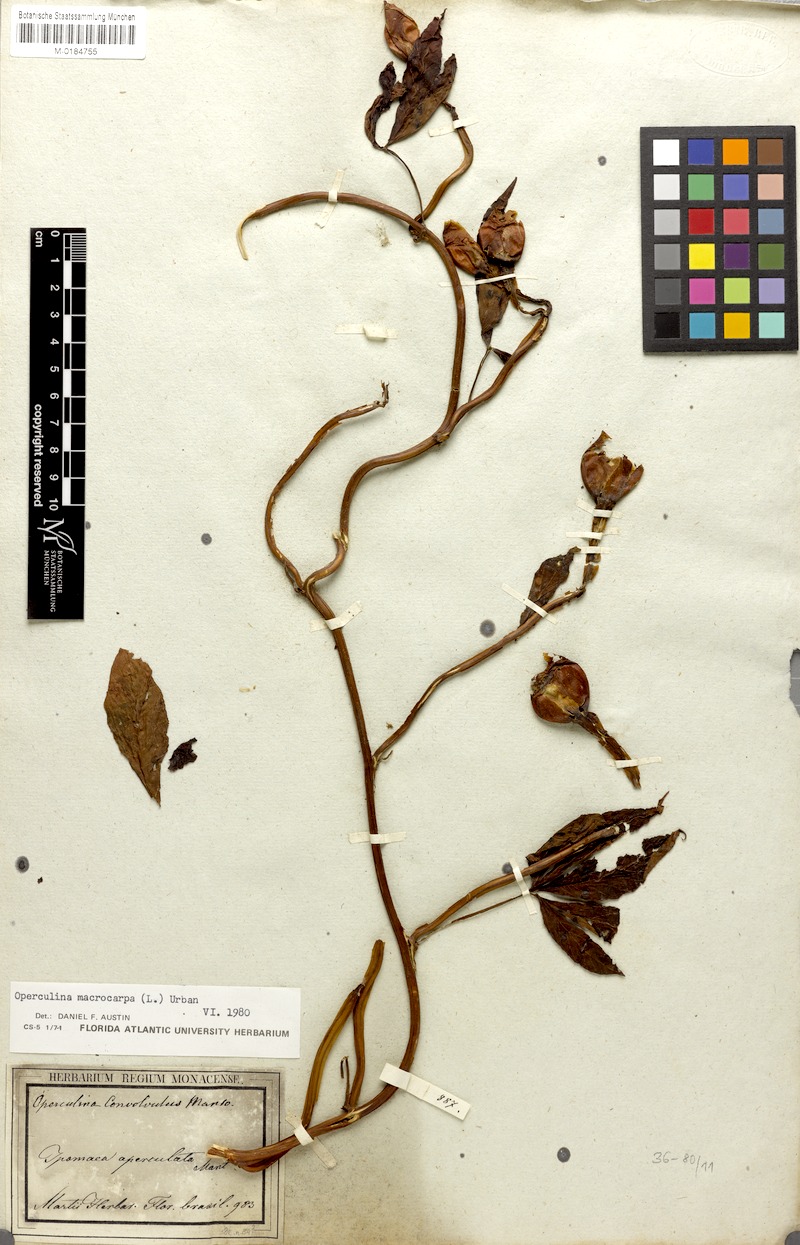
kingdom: Plantae
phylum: Tracheophyta
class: Magnoliopsida
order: Solanales
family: Convolvulaceae
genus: Operculina
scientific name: Operculina macrocarpa
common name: Brazilian jalap
